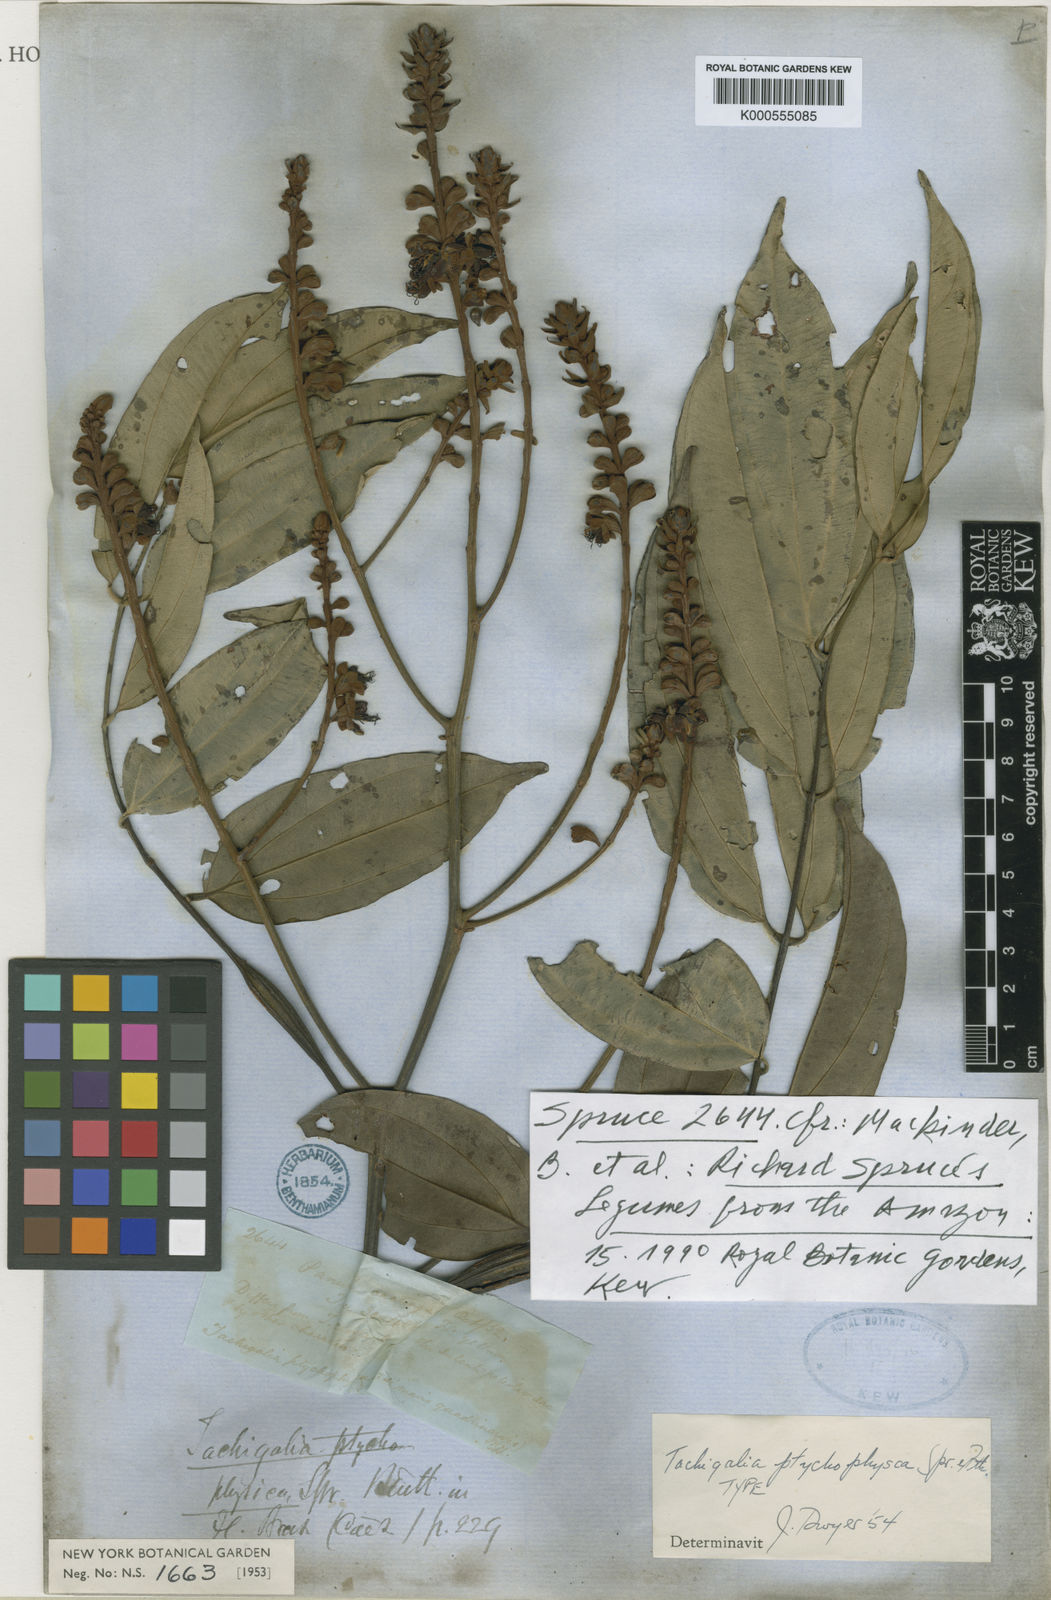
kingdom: Plantae
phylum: Tracheophyta
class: Magnoliopsida
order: Fabales
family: Fabaceae
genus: Tachigali
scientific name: Tachigali
